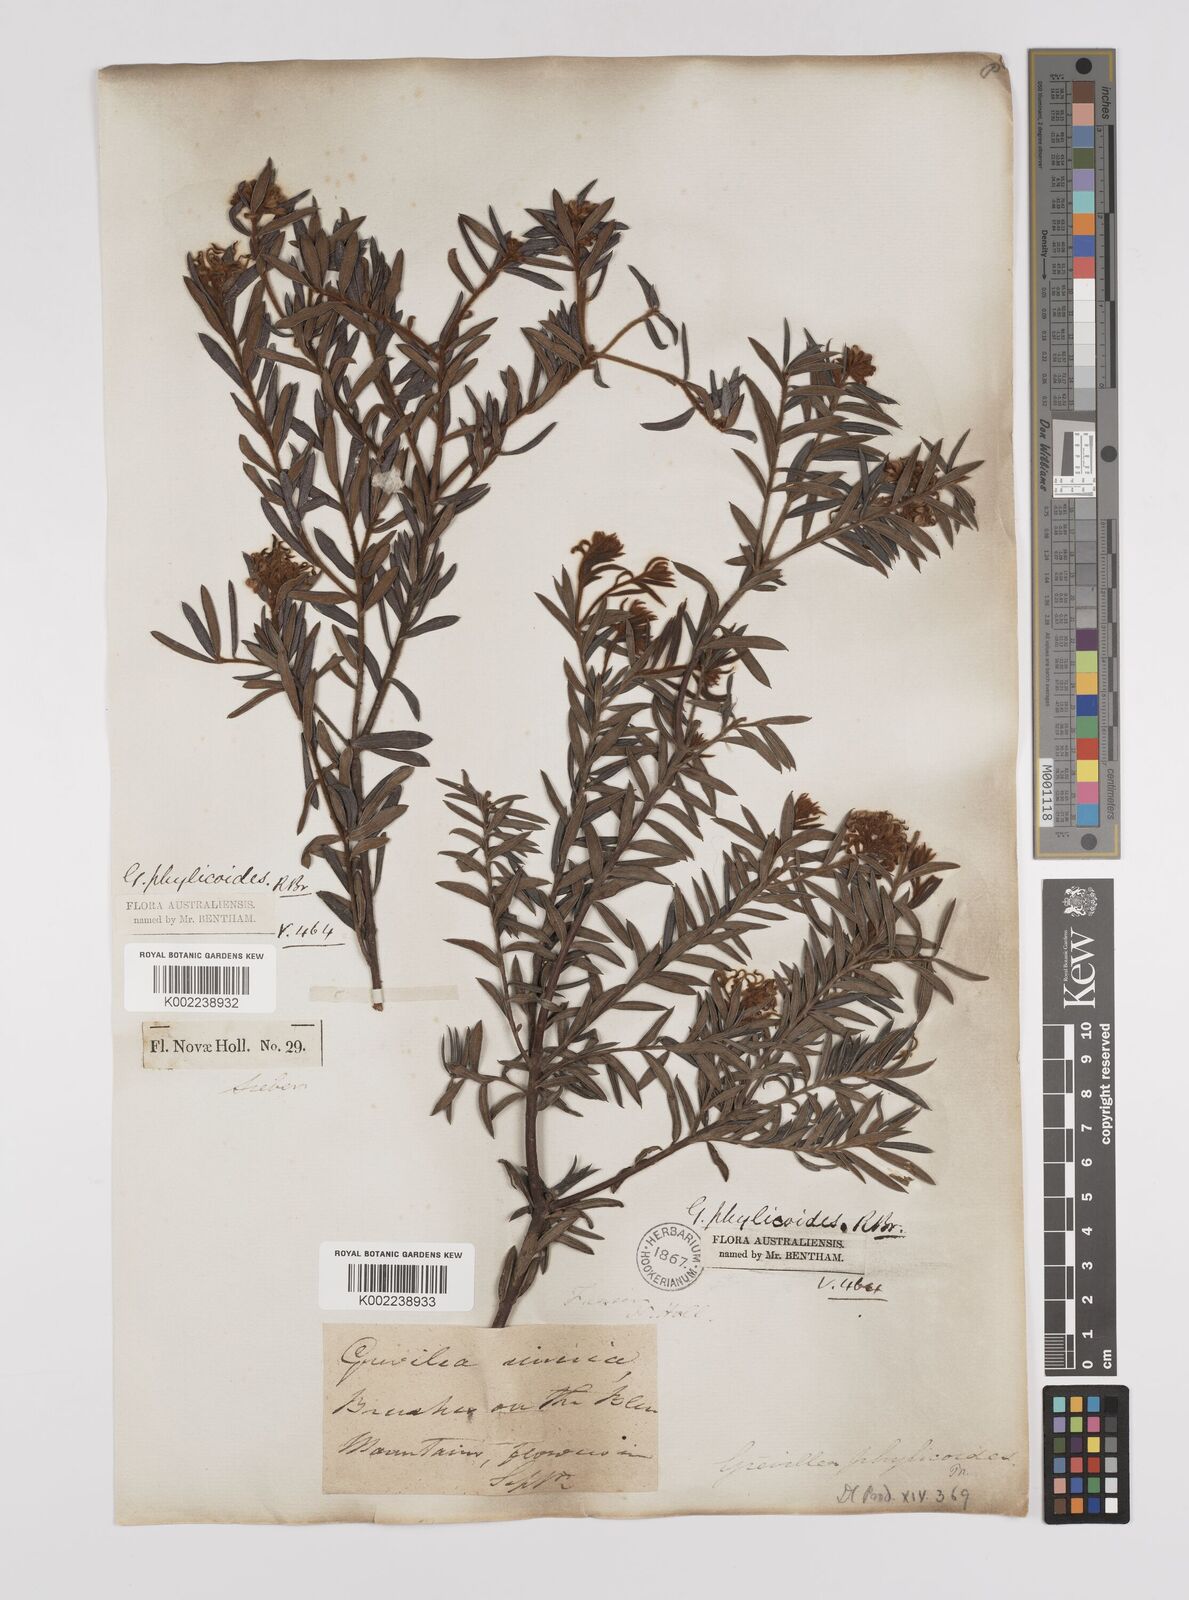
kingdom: Plantae
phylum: Tracheophyta
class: Magnoliopsida
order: Proteales
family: Proteaceae
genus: Grevillea
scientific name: Grevillea phylicoides
